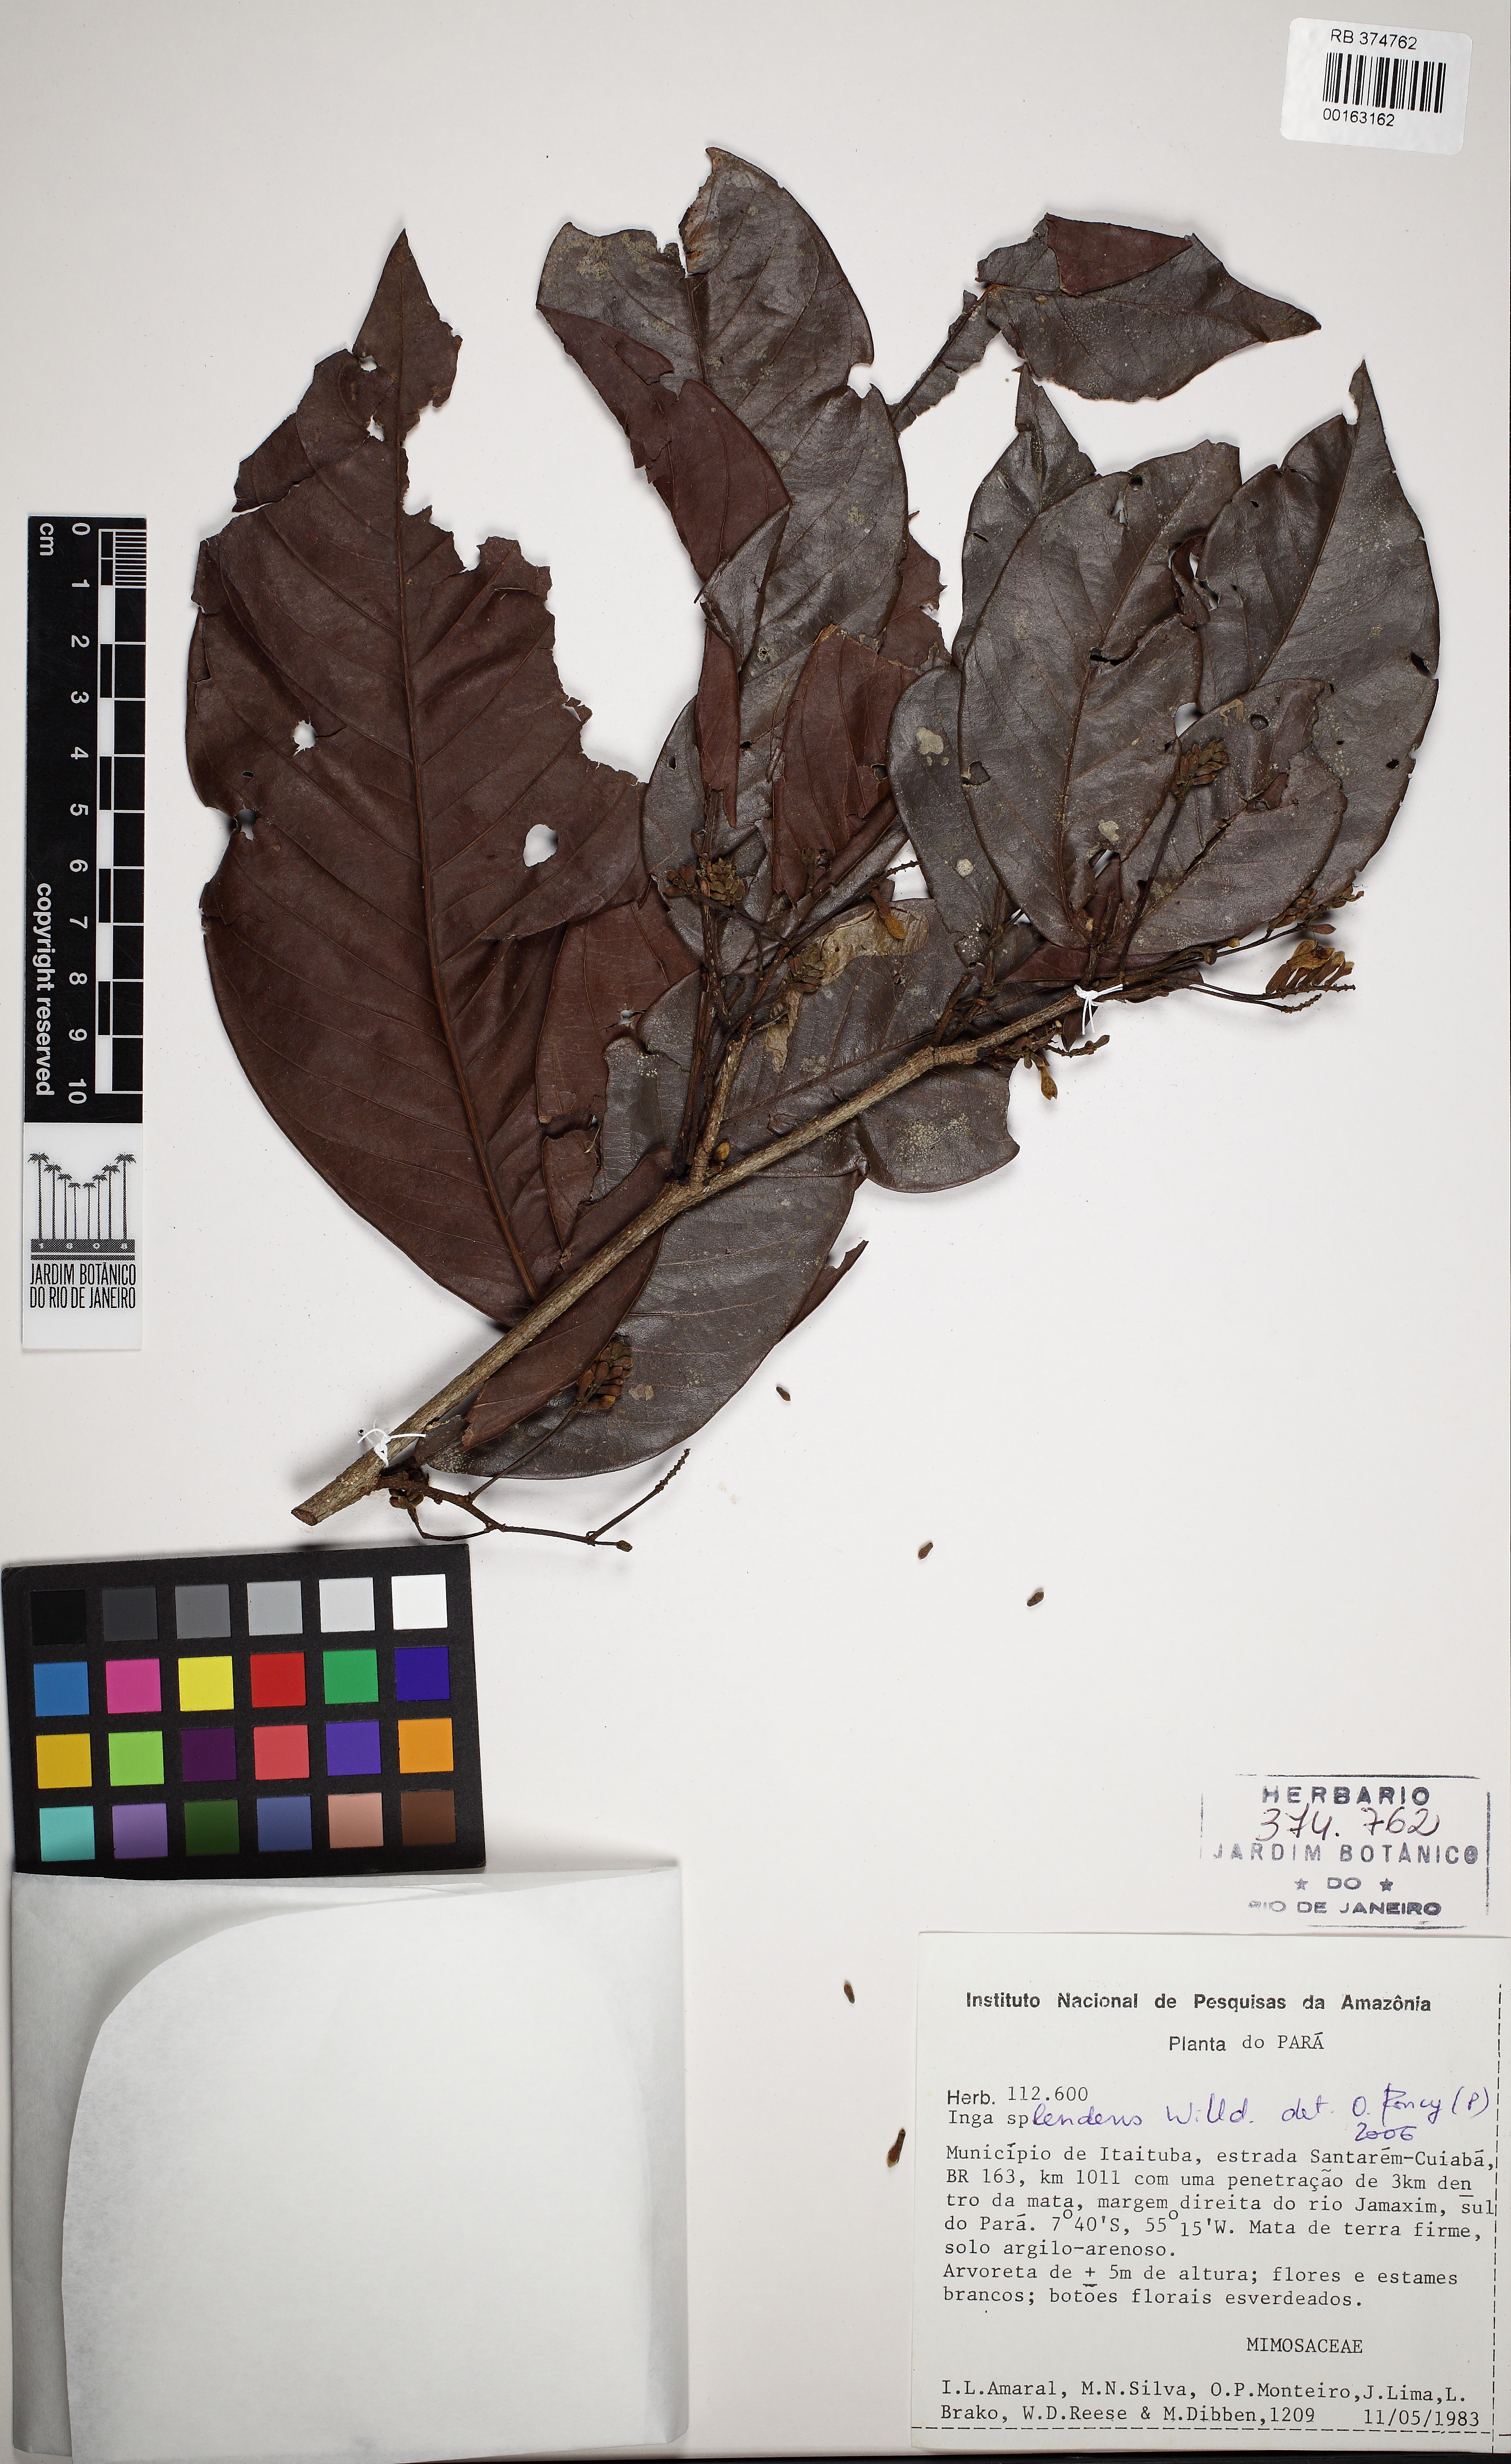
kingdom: Plantae
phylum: Tracheophyta
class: Magnoliopsida
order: Fabales
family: Fabaceae
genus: Inga
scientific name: Inga splendens
